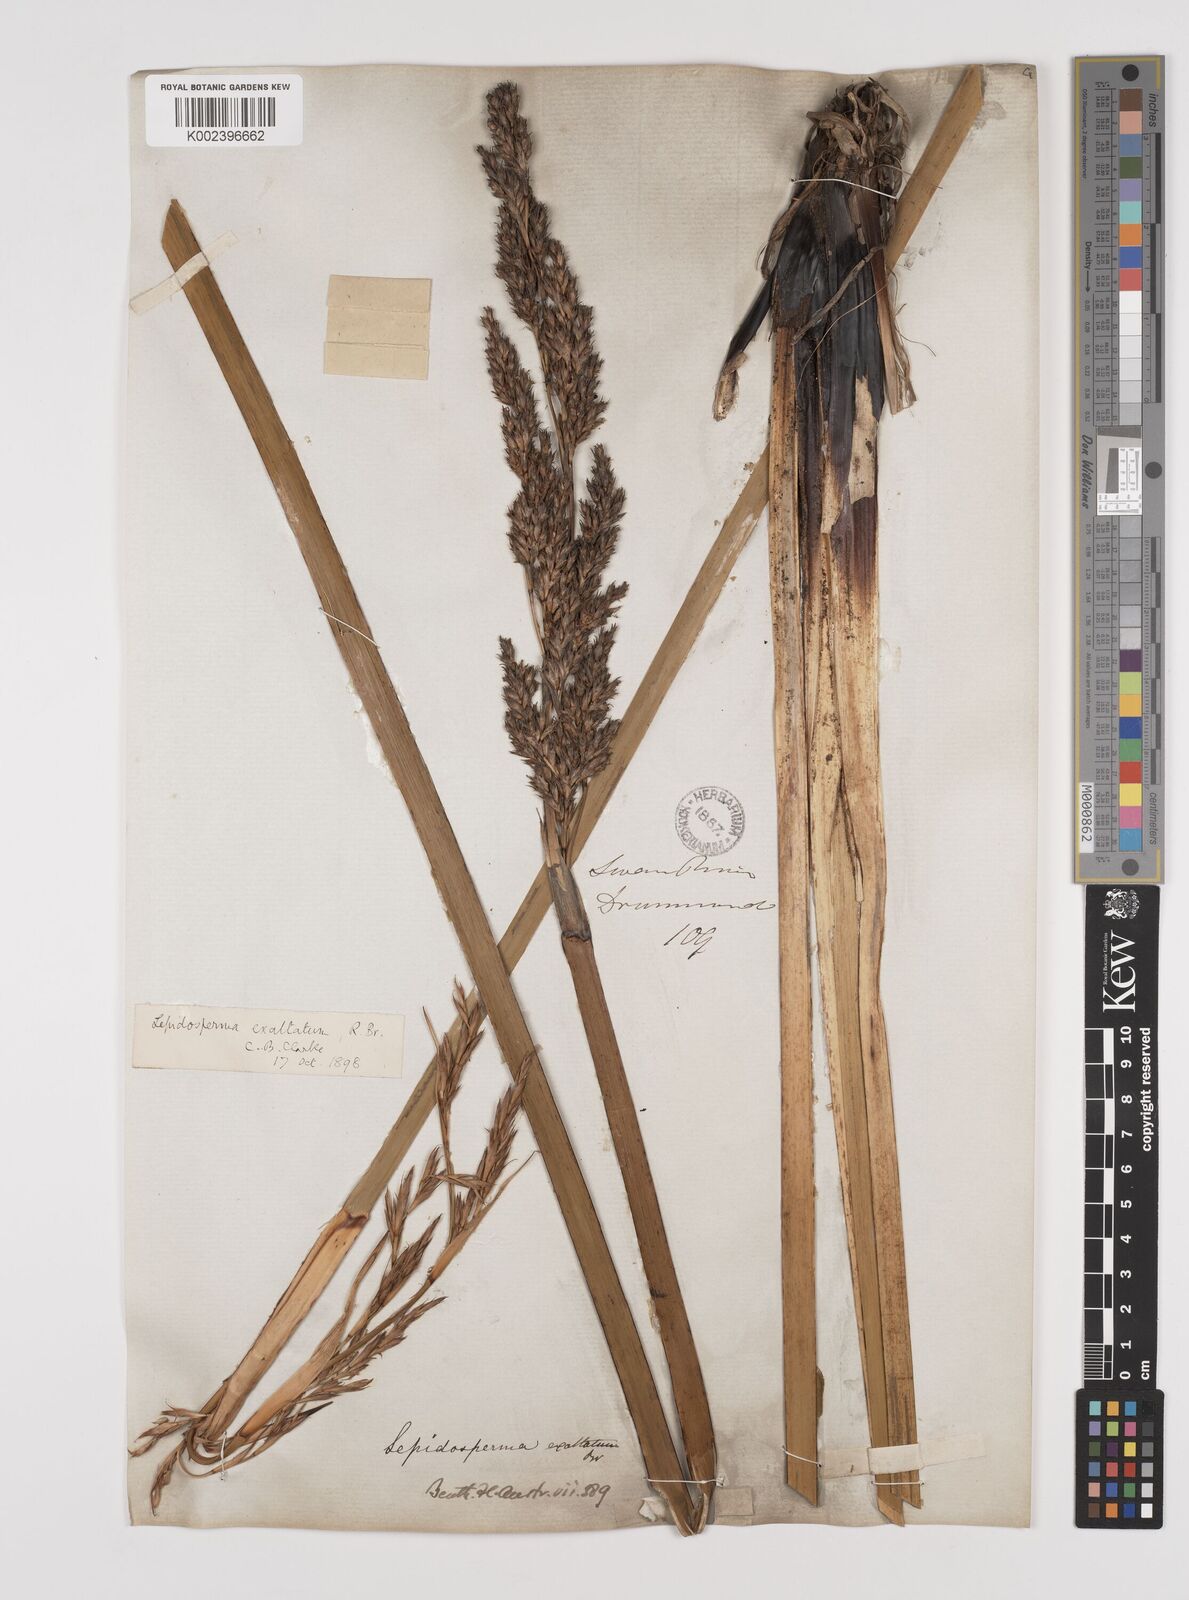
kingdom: Plantae
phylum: Tracheophyta
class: Liliopsida
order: Poales
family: Cyperaceae
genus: Lepidosperma
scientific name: Lepidosperma longitudinale
